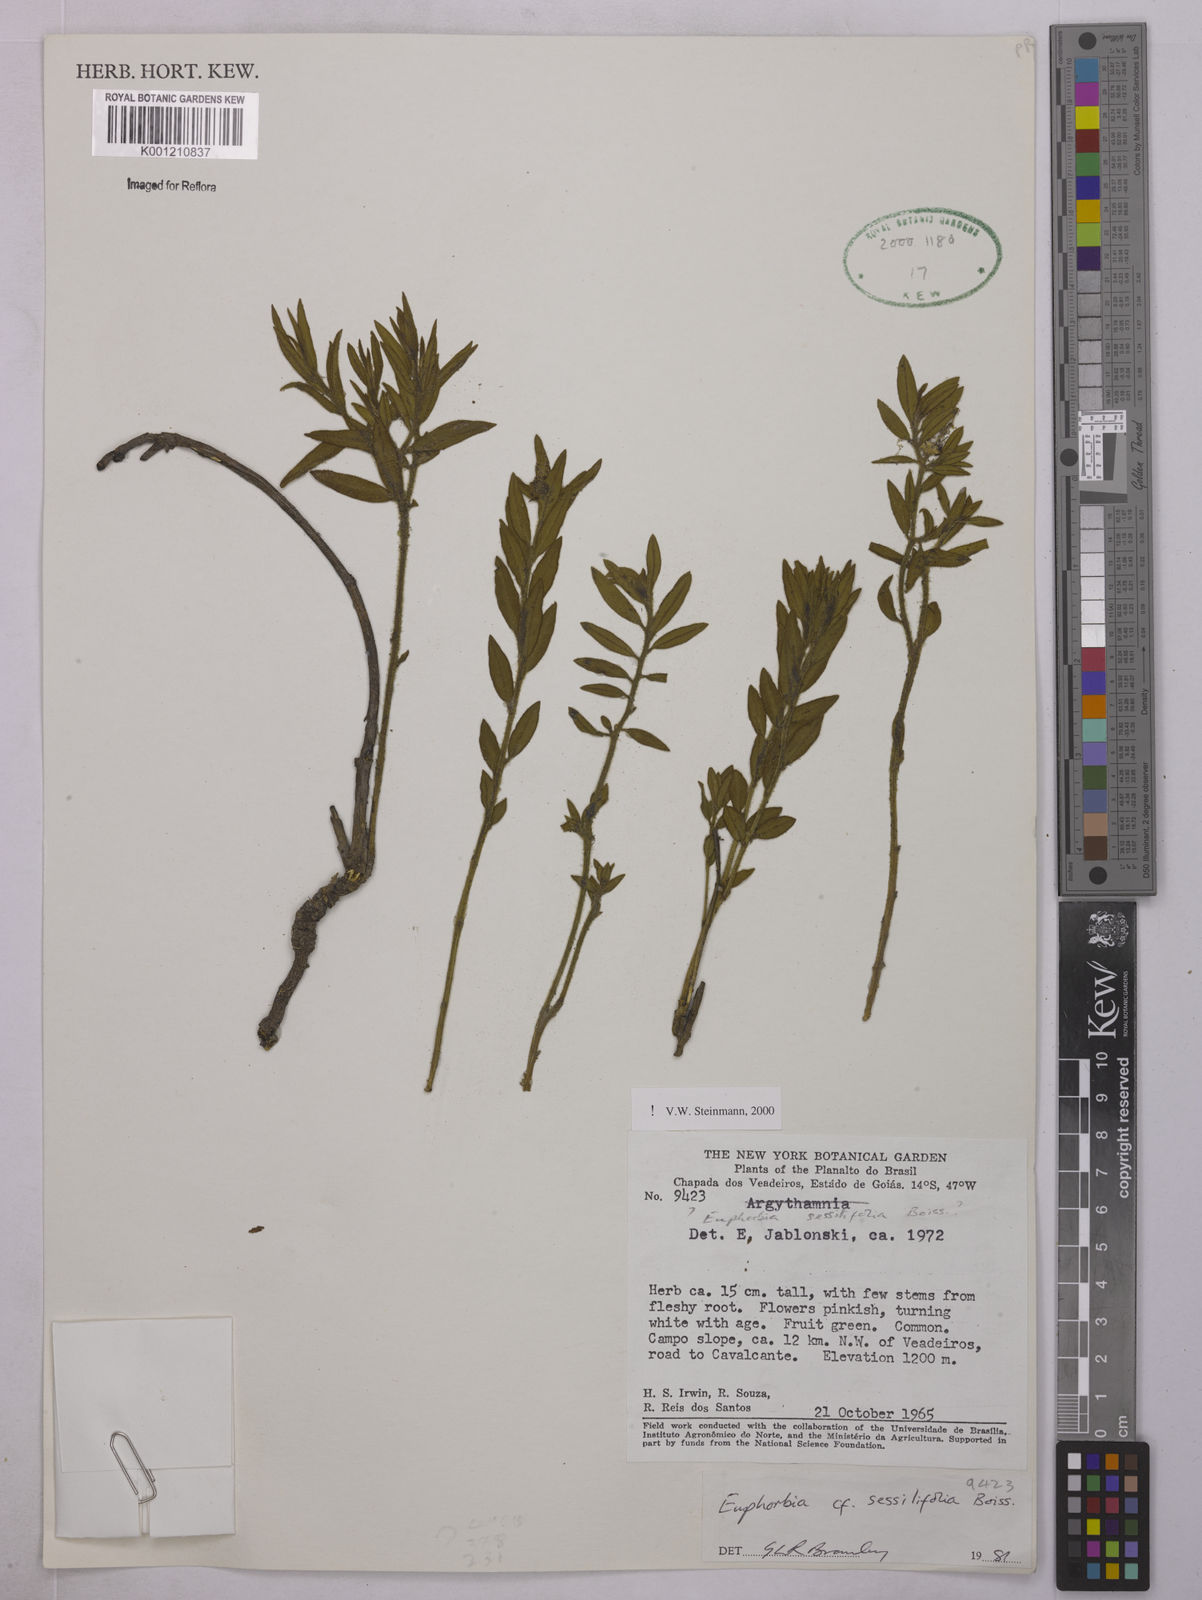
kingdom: Plantae
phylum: Tracheophyta
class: Magnoliopsida
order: Malpighiales
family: Euphorbiaceae
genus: Euphorbia
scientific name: Euphorbia sessilifolia
